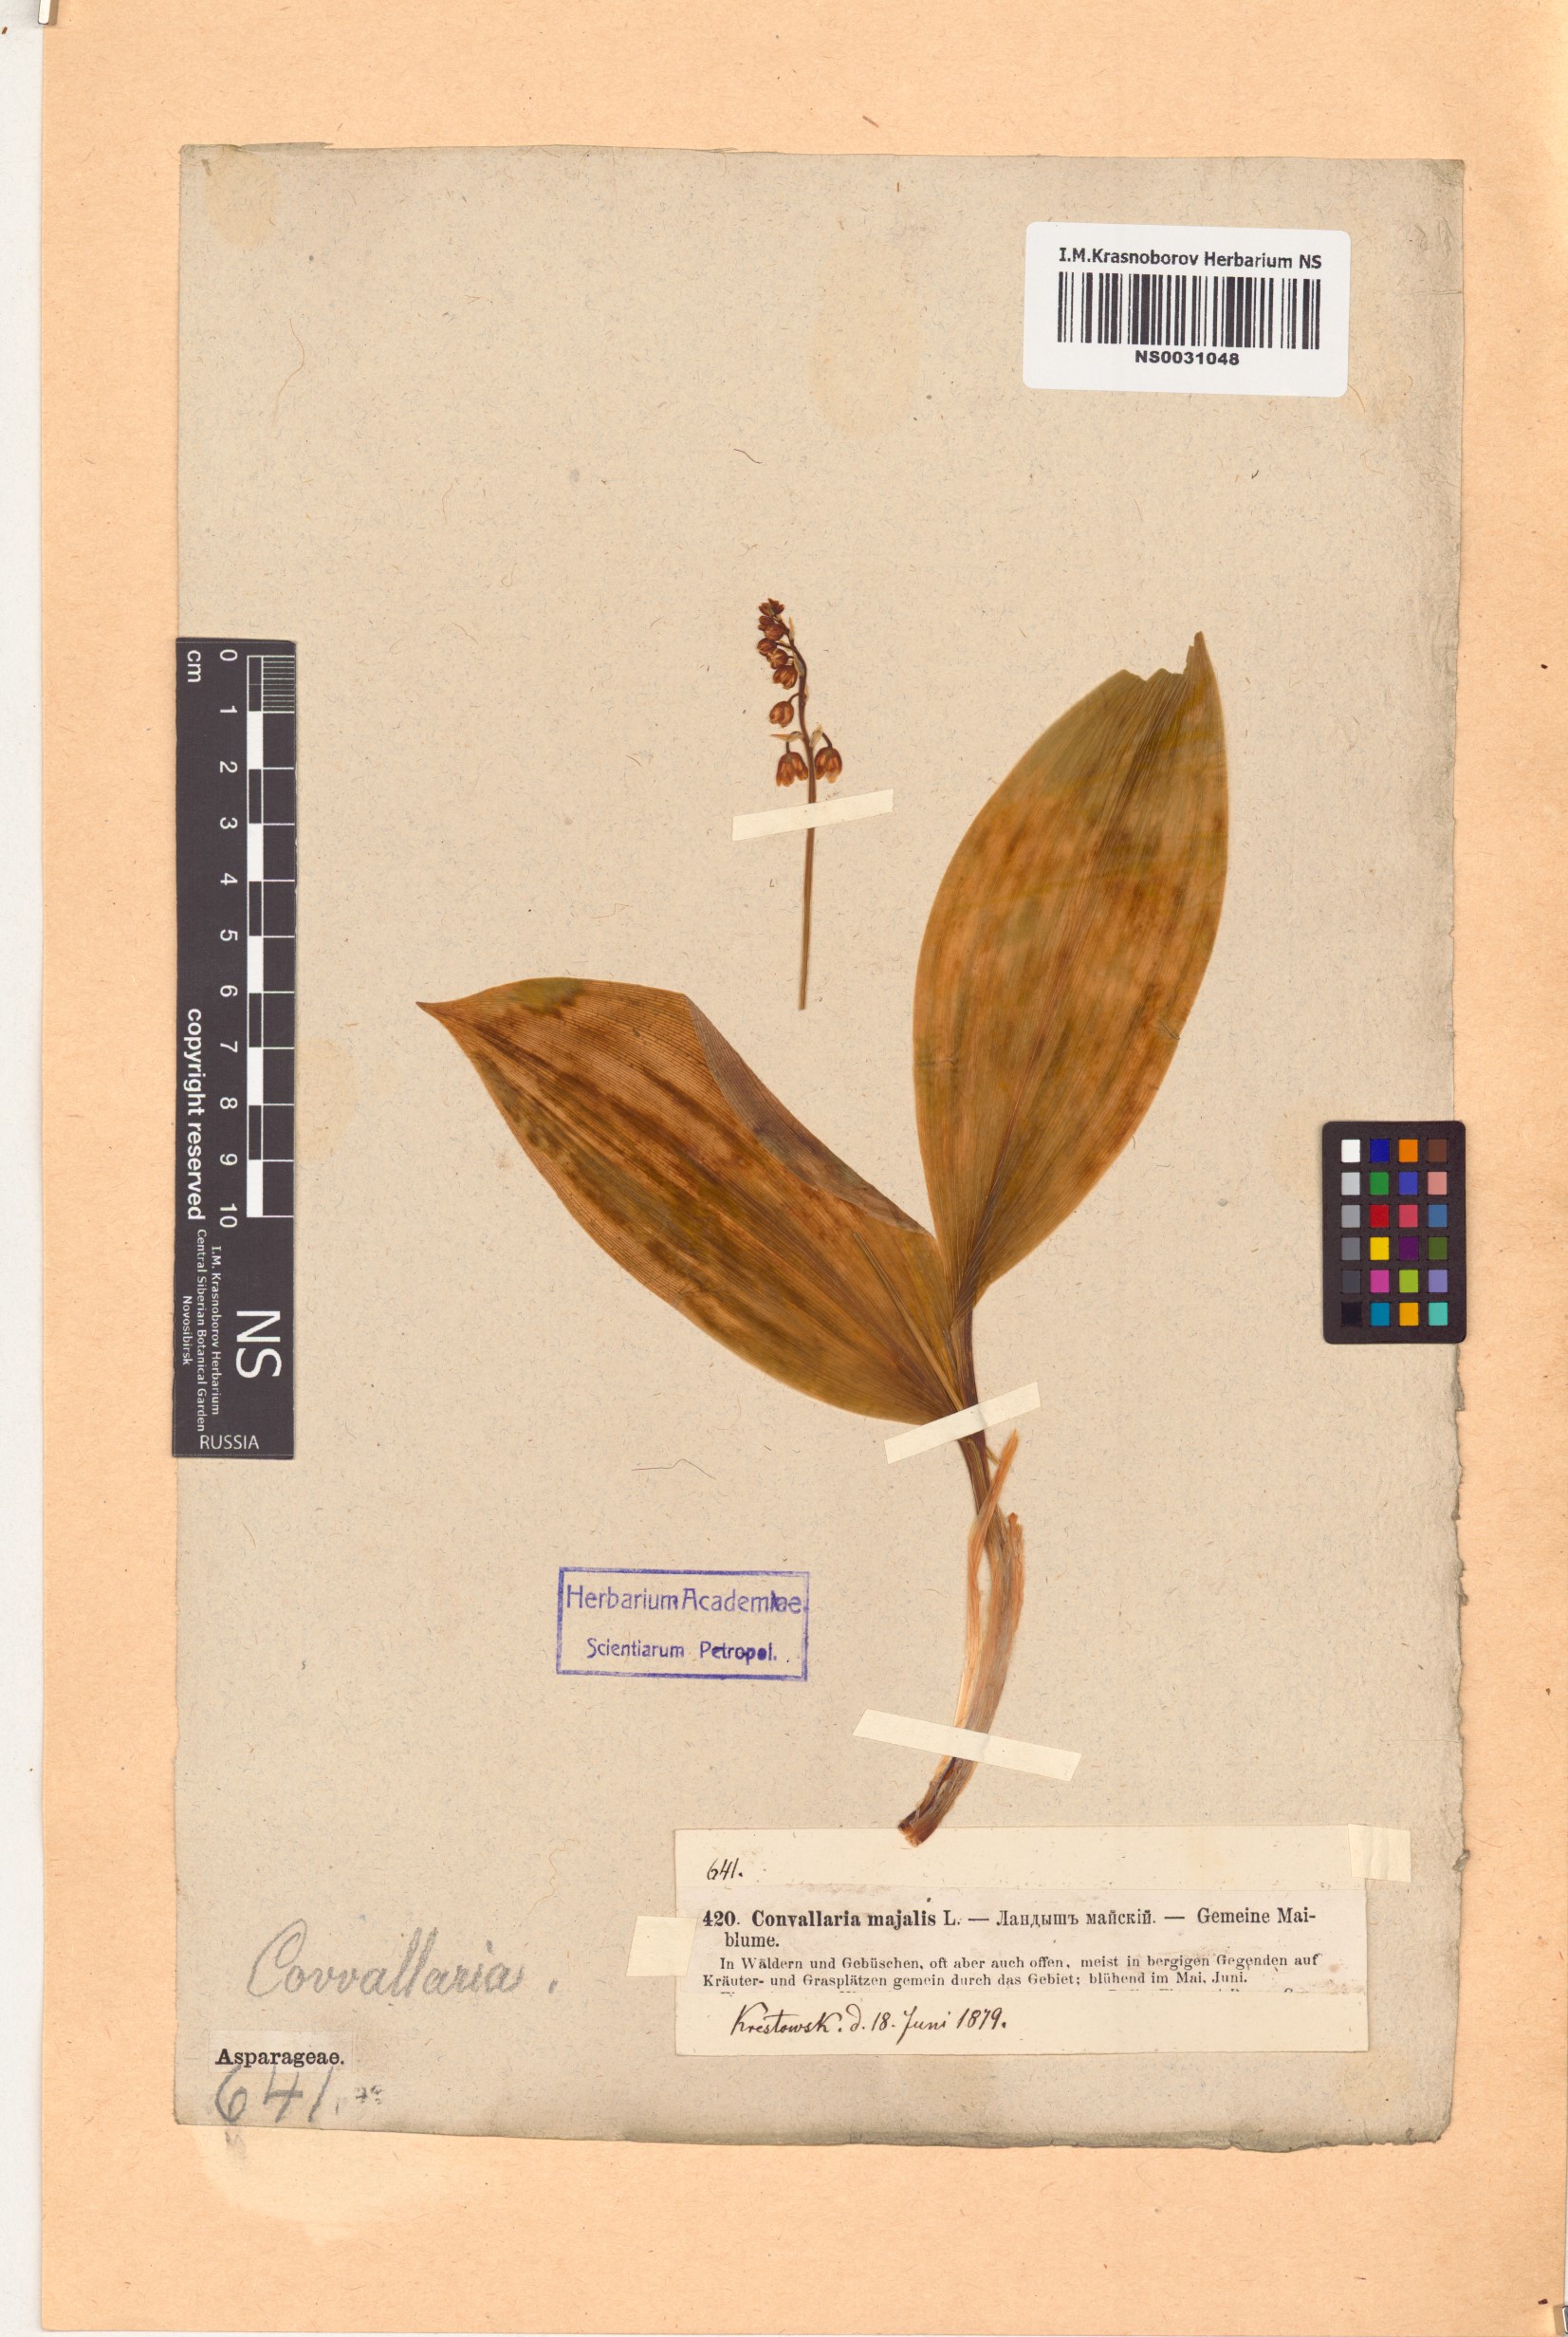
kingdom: Plantae
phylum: Tracheophyta
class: Liliopsida
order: Asparagales
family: Asparagaceae
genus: Convallaria
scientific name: Convallaria majalis
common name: Lily-of-the-valley
